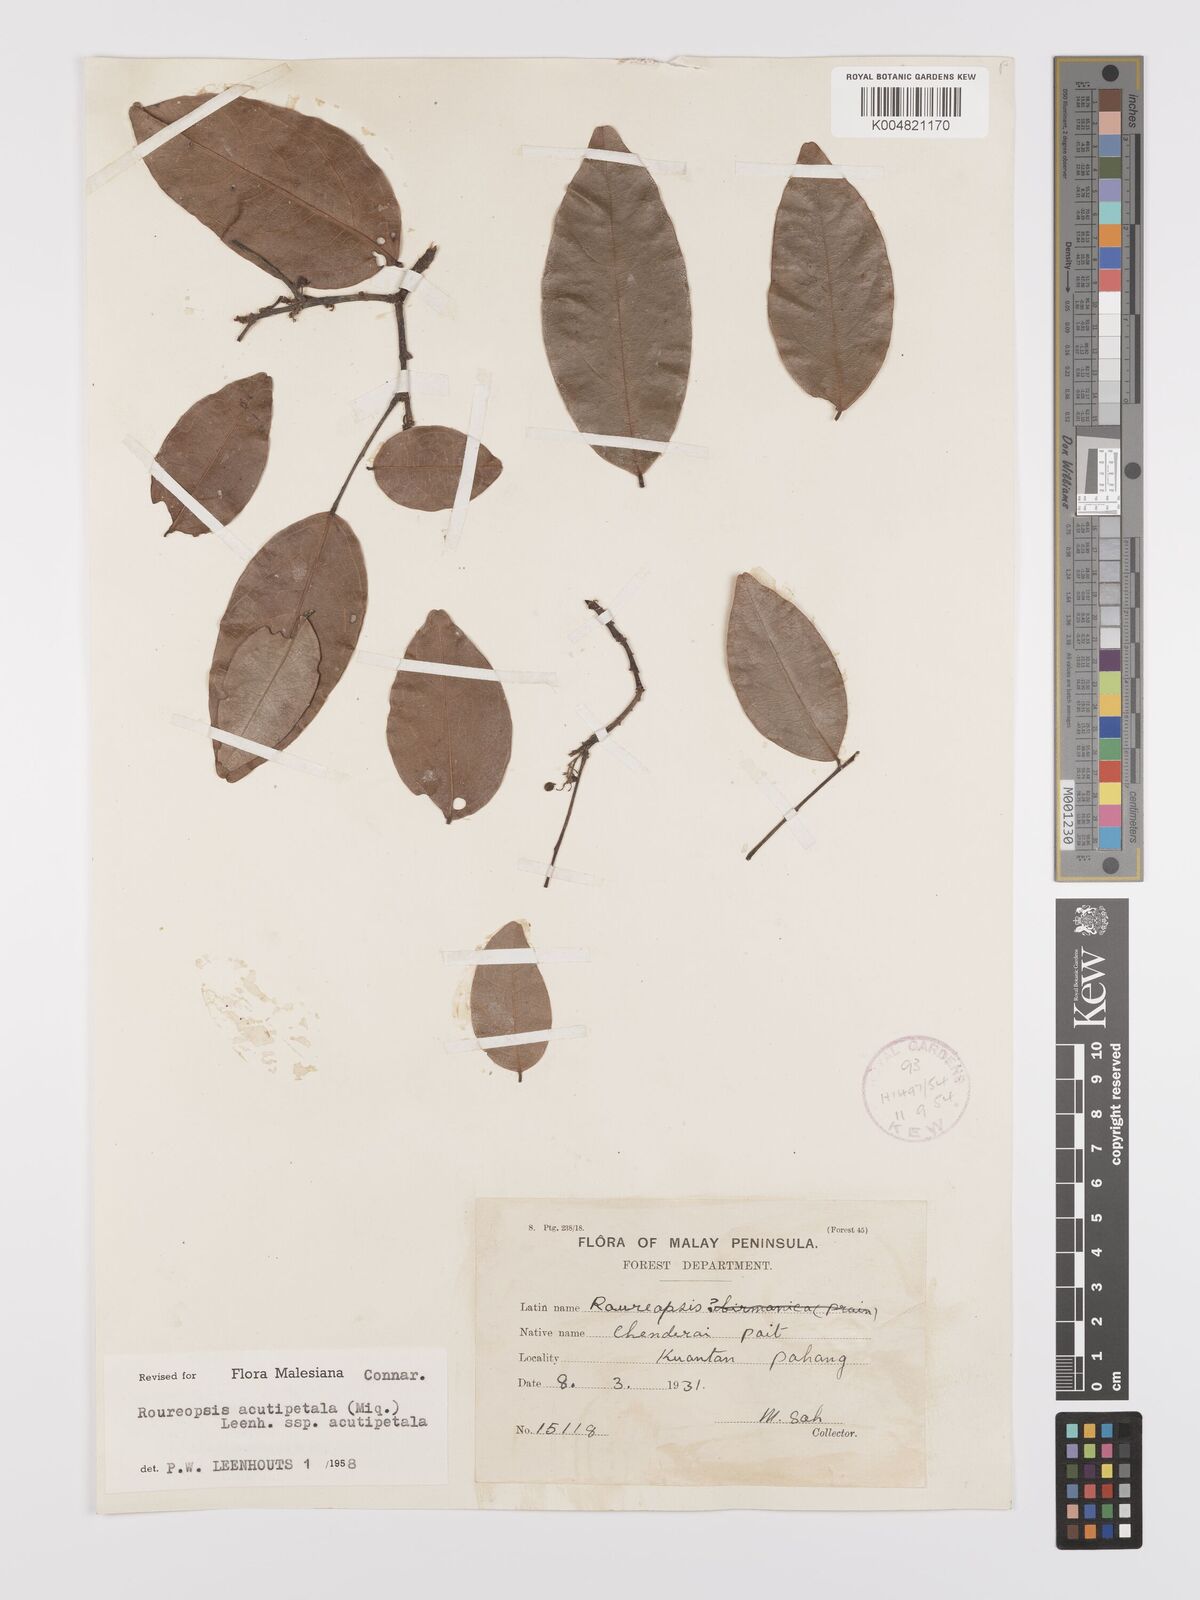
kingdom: Plantae
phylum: Tracheophyta
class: Magnoliopsida
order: Oxalidales
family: Connaraceae
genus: Rourea
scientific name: Rourea acutipetala
